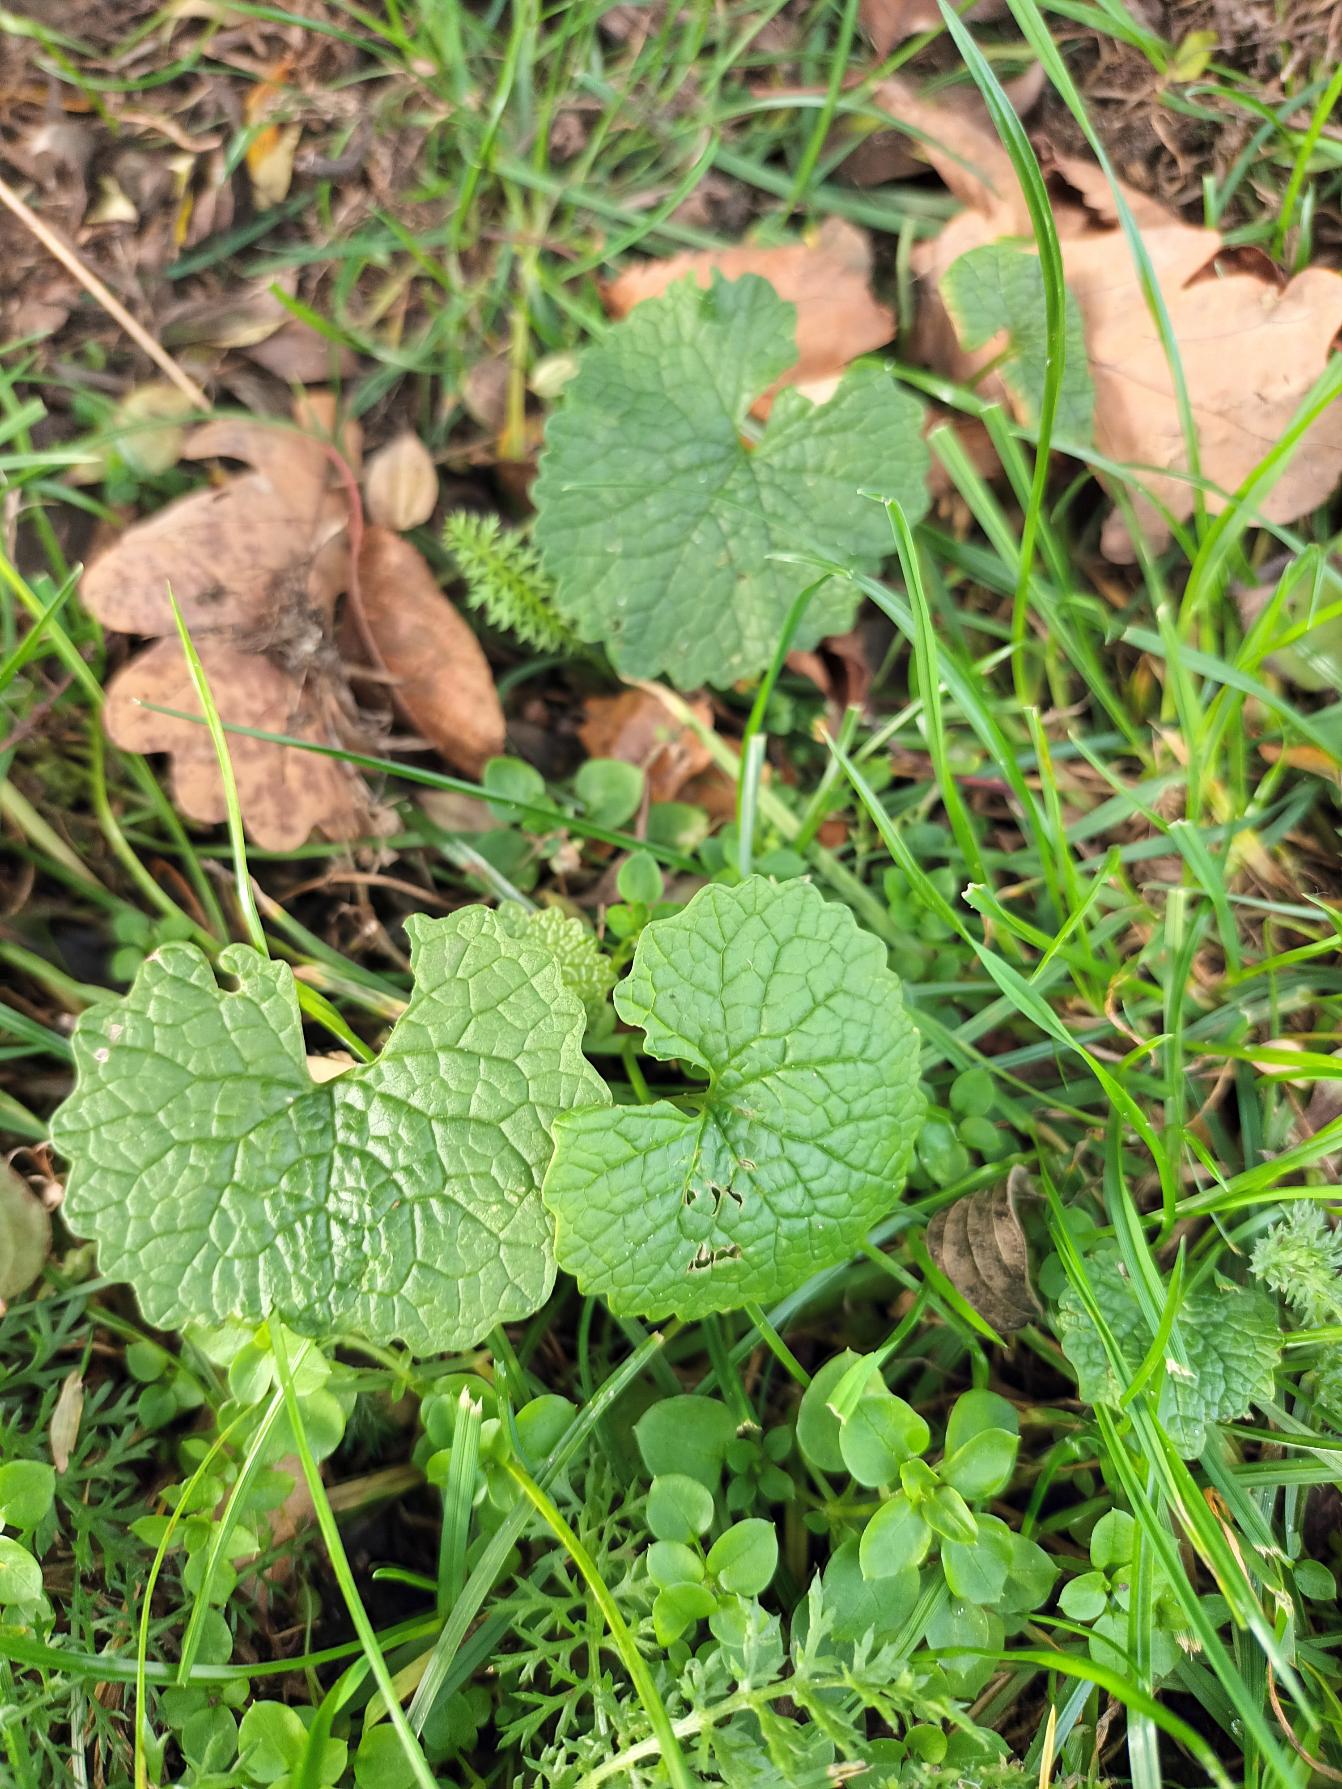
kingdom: Plantae
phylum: Tracheophyta
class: Magnoliopsida
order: Brassicales
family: Brassicaceae
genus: Alliaria
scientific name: Alliaria petiolata
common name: Løgkarse
